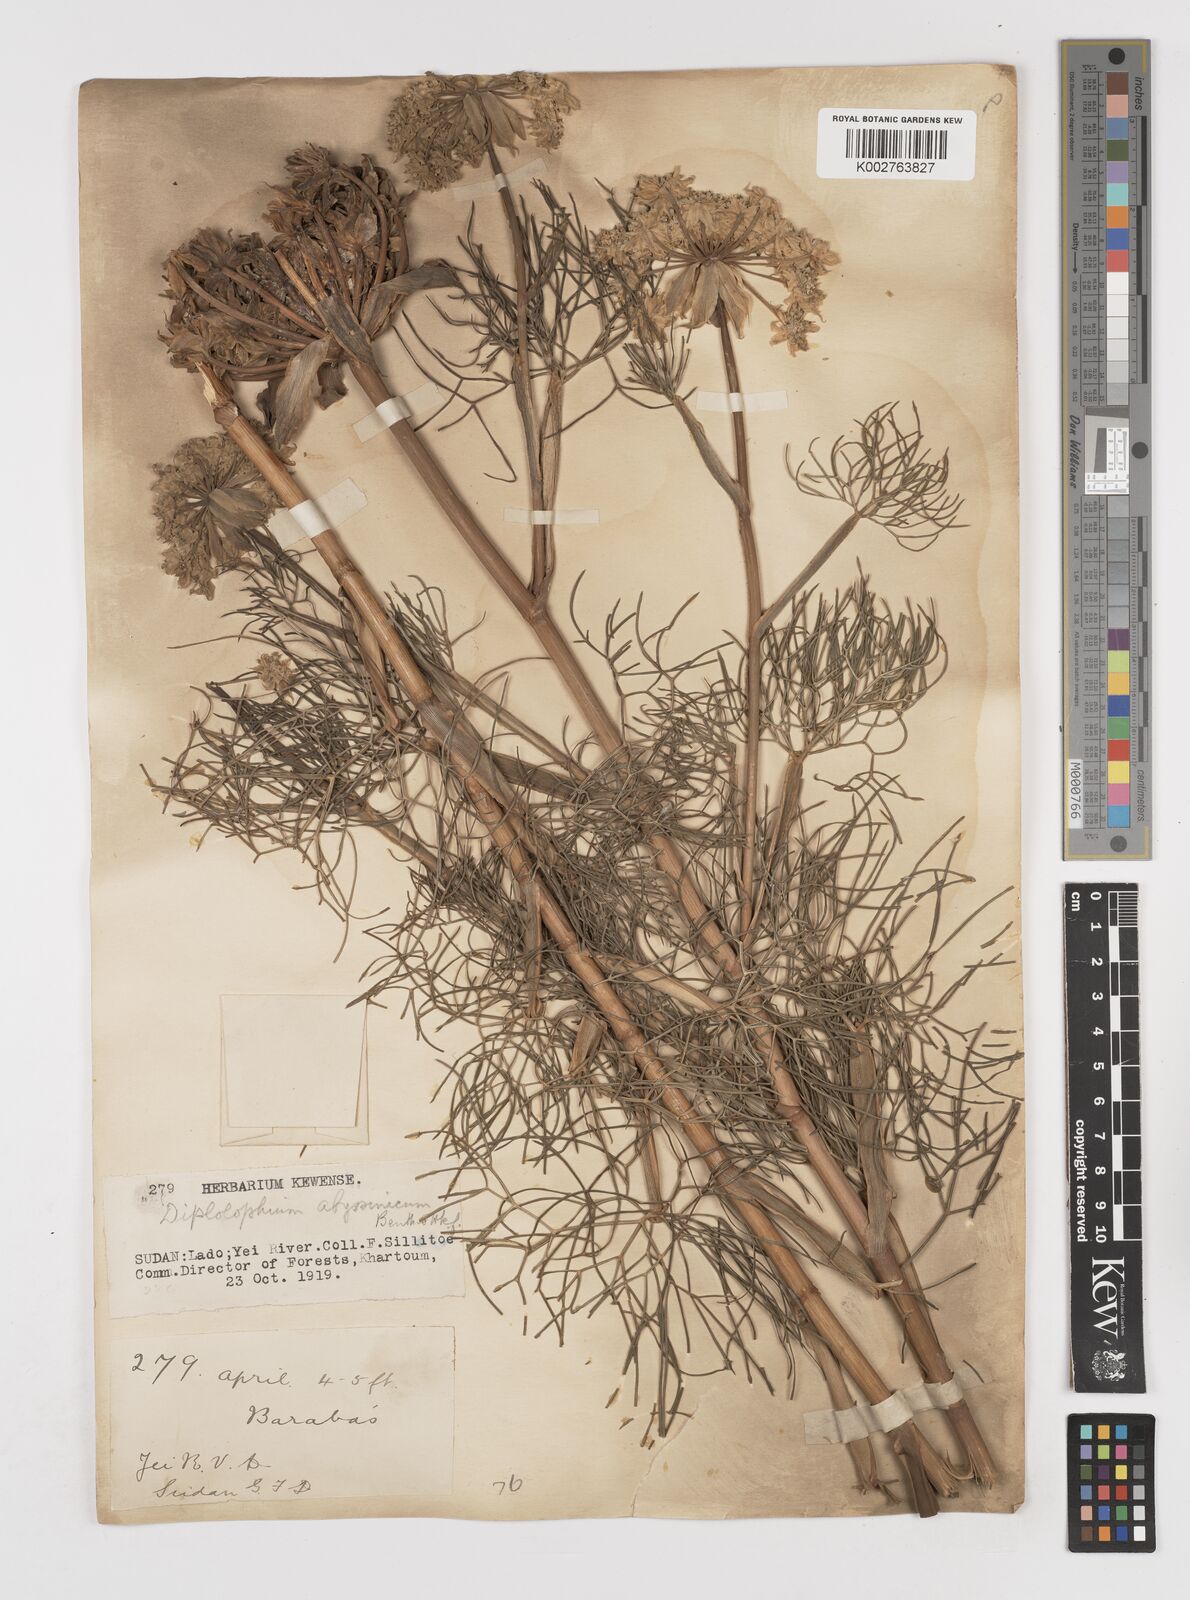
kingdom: Plantae
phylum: Tracheophyta
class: Magnoliopsida
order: Apiales
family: Apiaceae
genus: Diplolophium
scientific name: Diplolophium africanum
